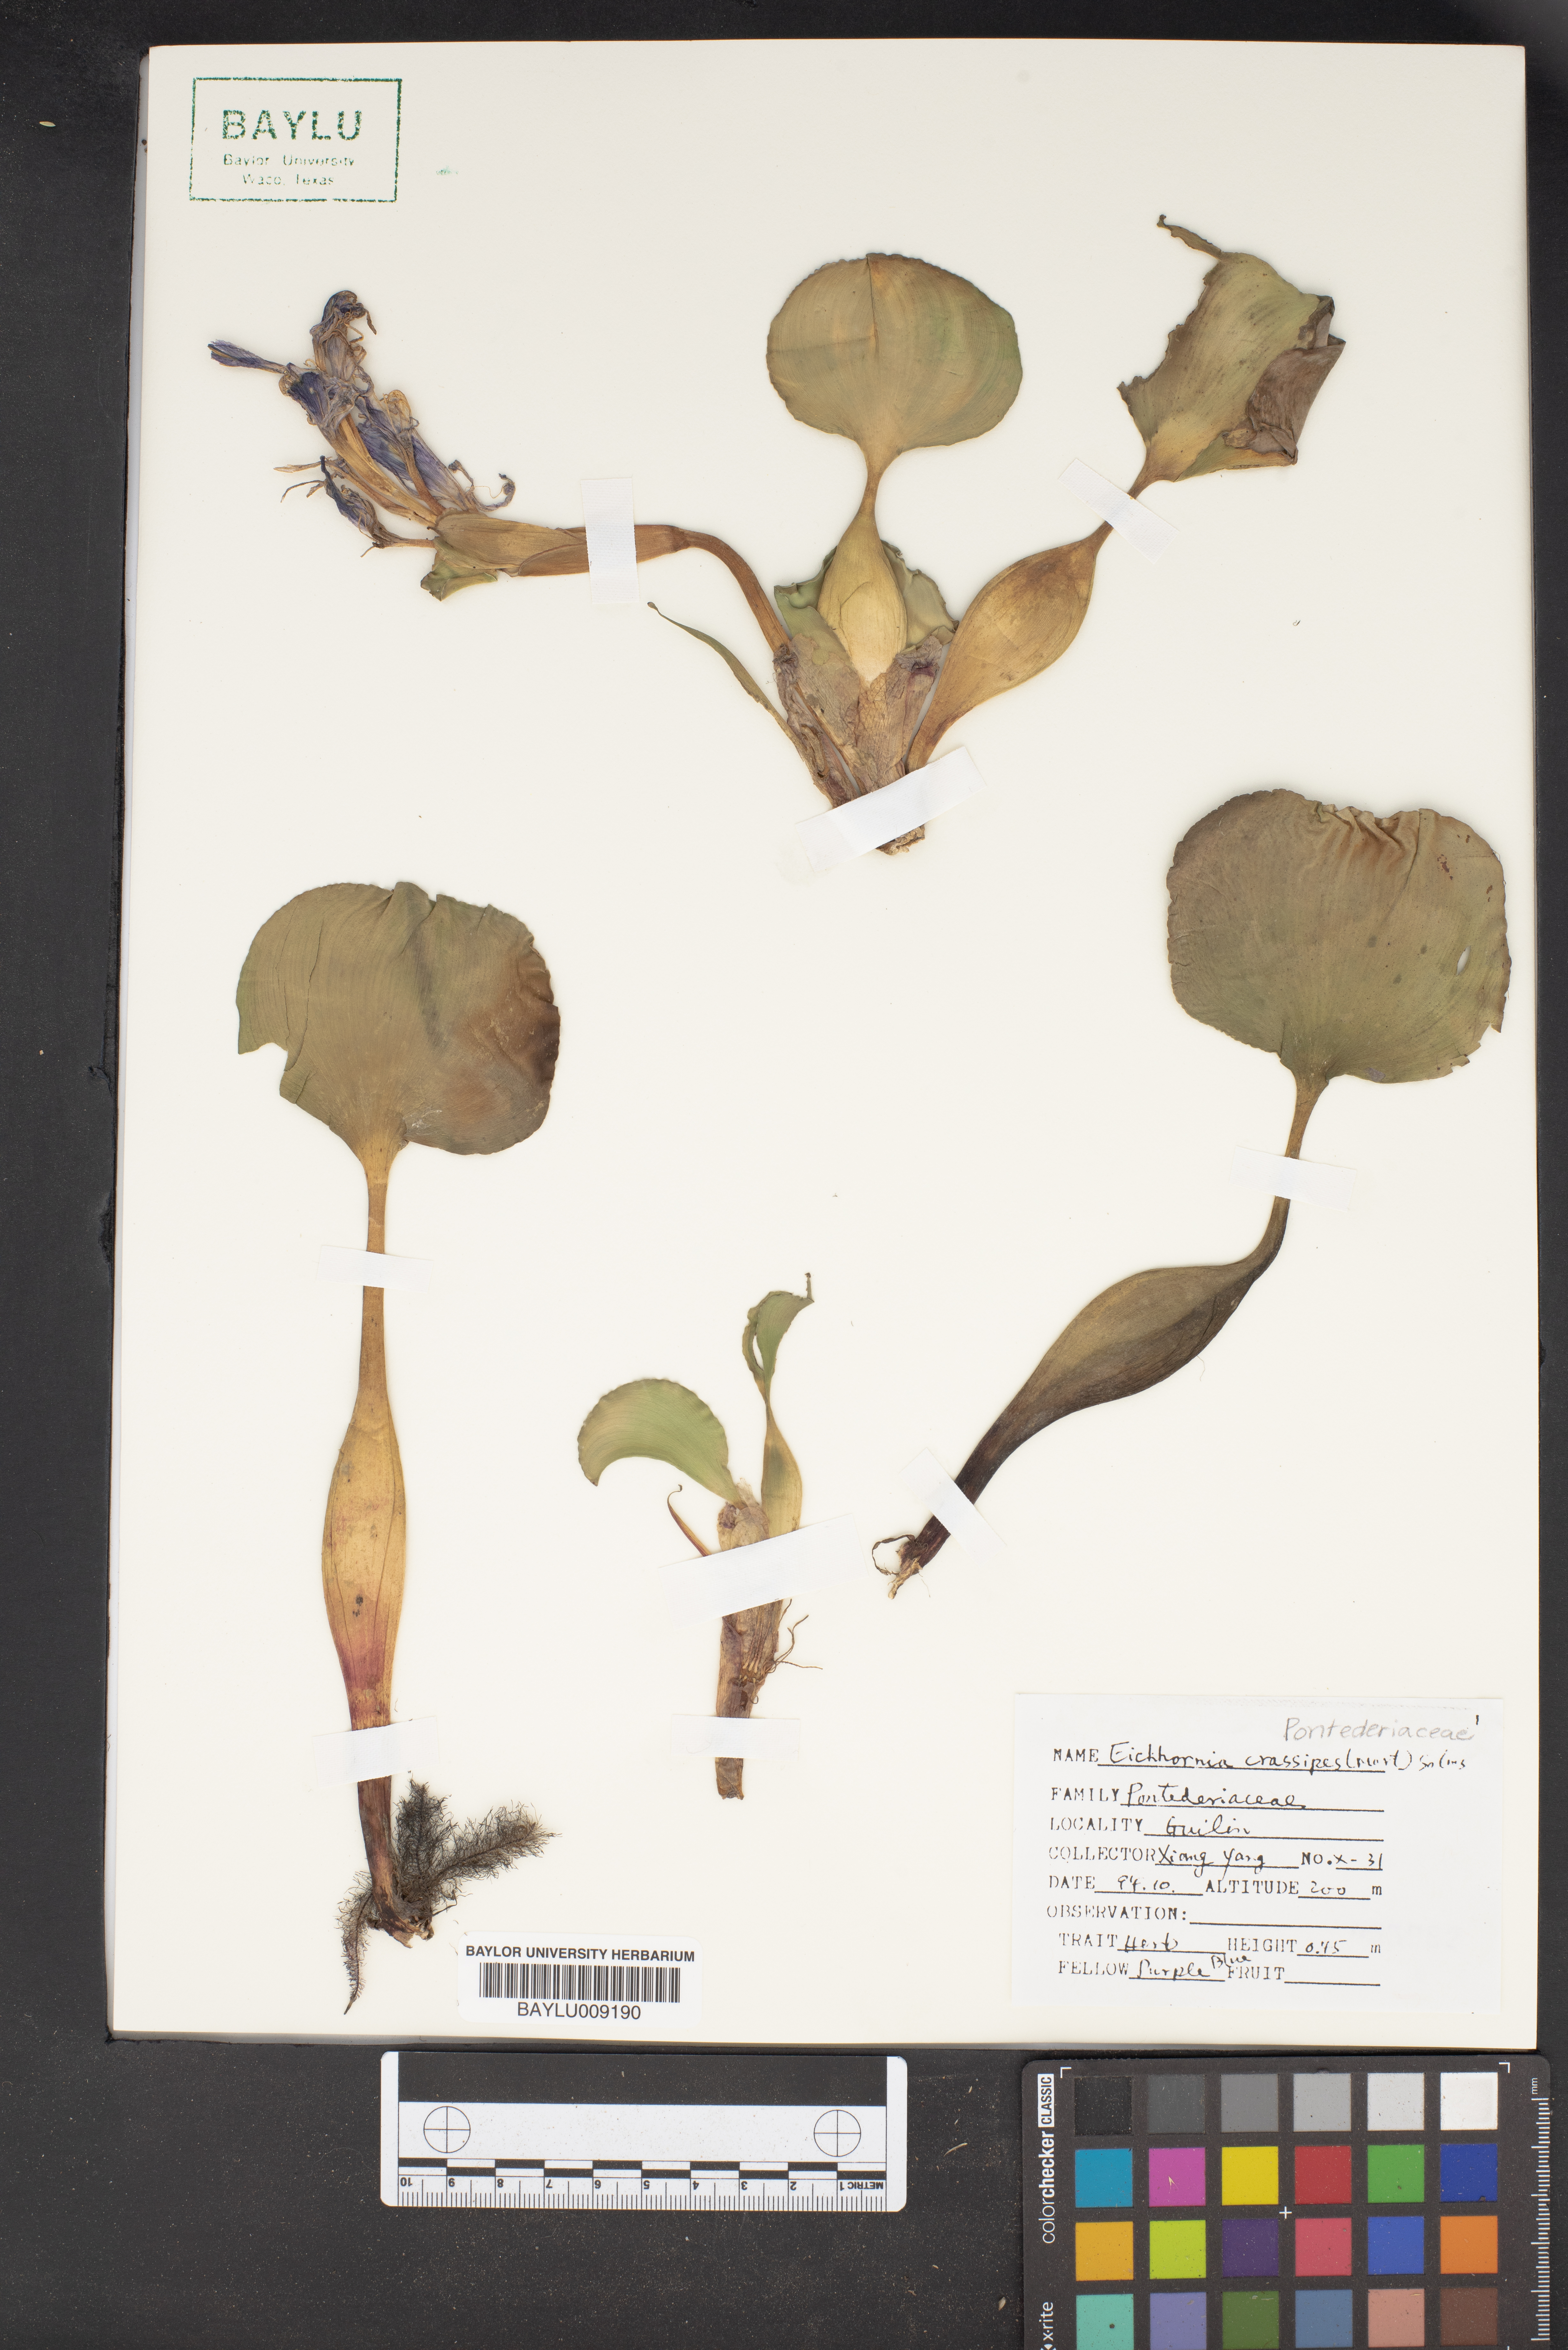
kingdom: Plantae
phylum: Tracheophyta
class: Liliopsida
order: Commelinales
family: Pontederiaceae
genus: Pontederia
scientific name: Pontederia crassipes
